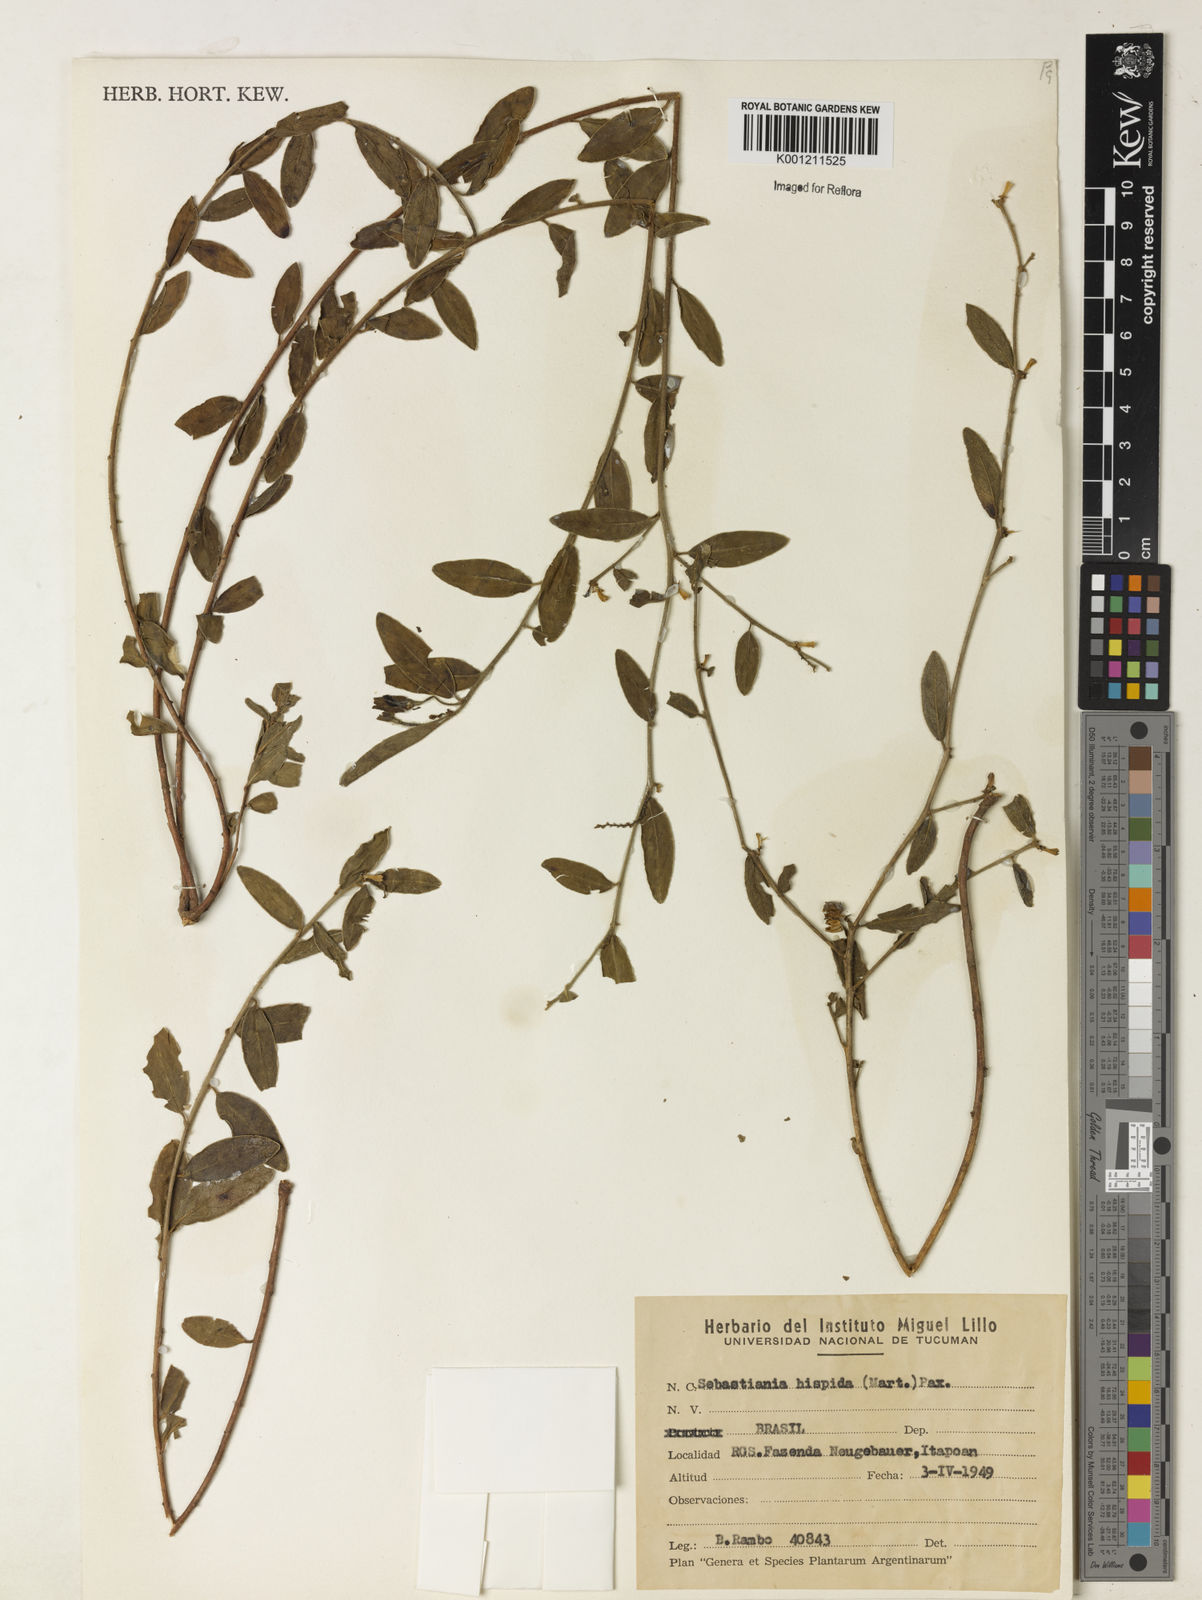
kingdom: Plantae
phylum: Tracheophyta
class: Magnoliopsida
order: Malpighiales
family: Euphorbiaceae
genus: Microstachys
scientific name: Microstachys hispida
